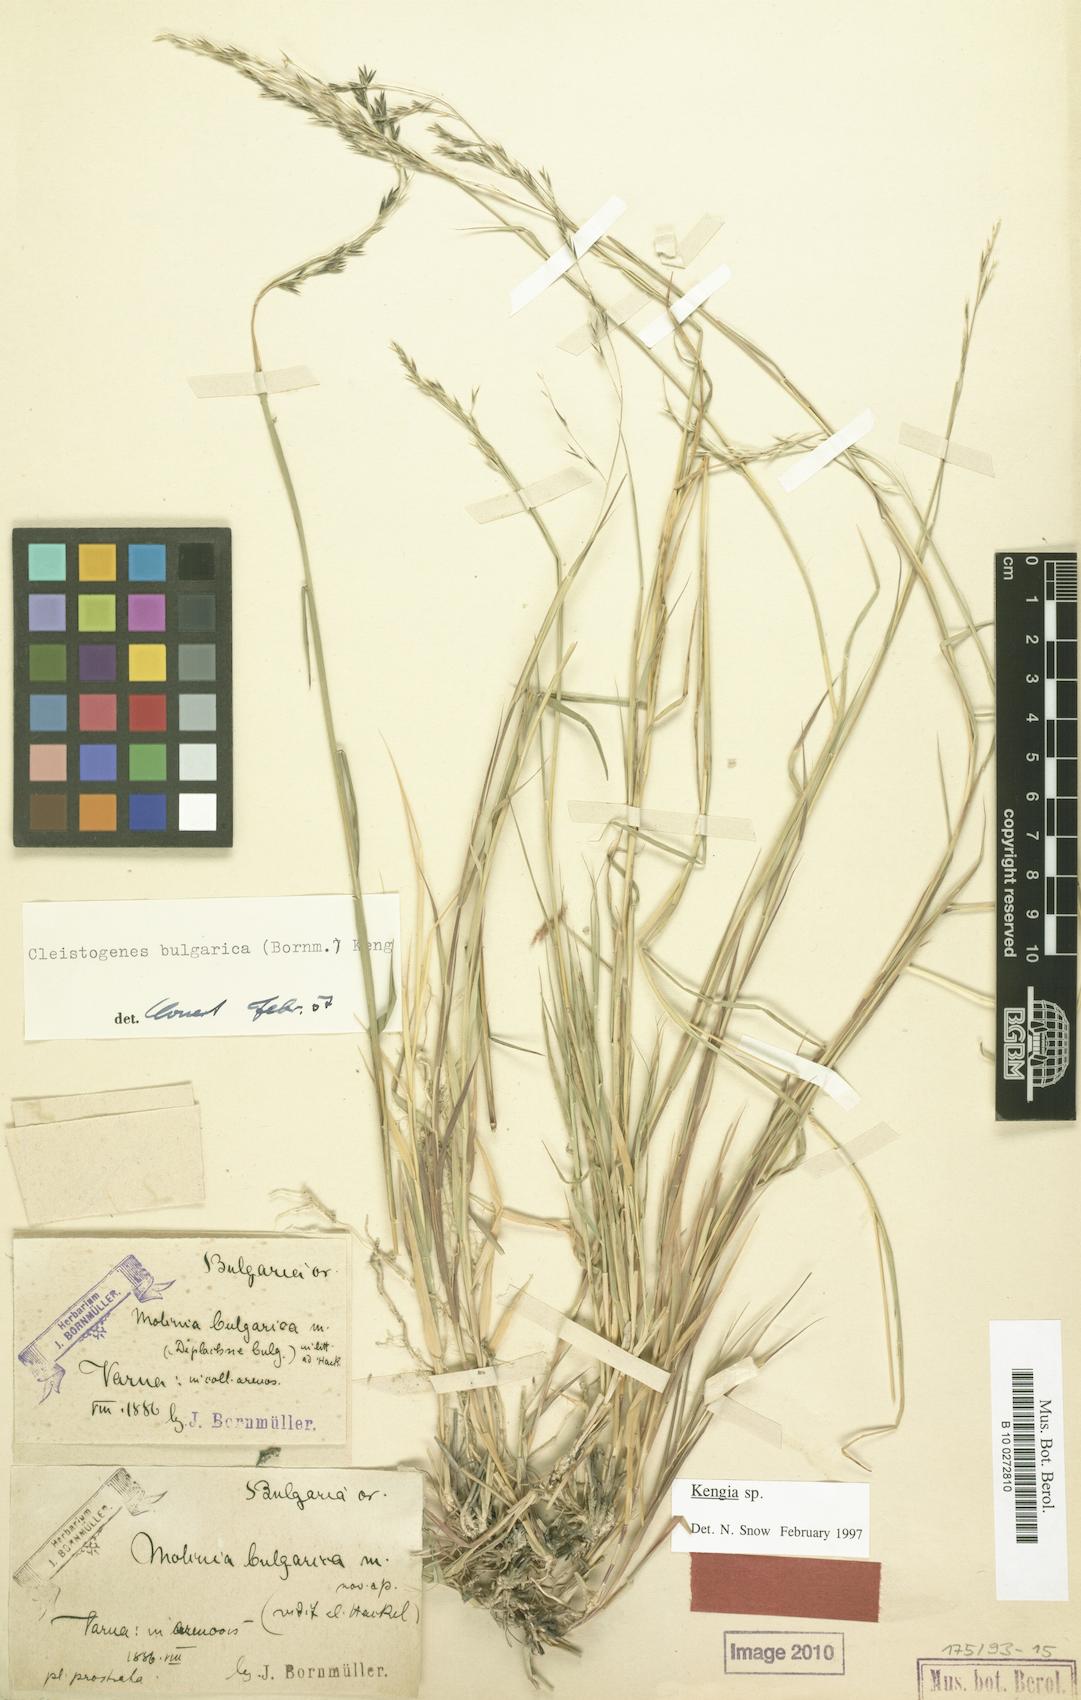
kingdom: Plantae
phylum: Tracheophyta
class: Liliopsida
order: Poales
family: Poaceae
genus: Cleistogenes
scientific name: Cleistogenes serotina
